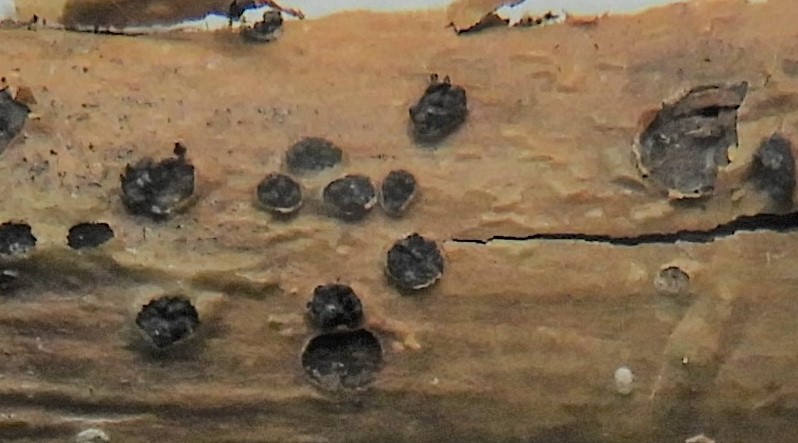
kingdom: Fungi
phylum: Ascomycota
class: Sordariomycetes
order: Hypocreales
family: Nectriaceae
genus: Gibberella
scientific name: Gibberella
